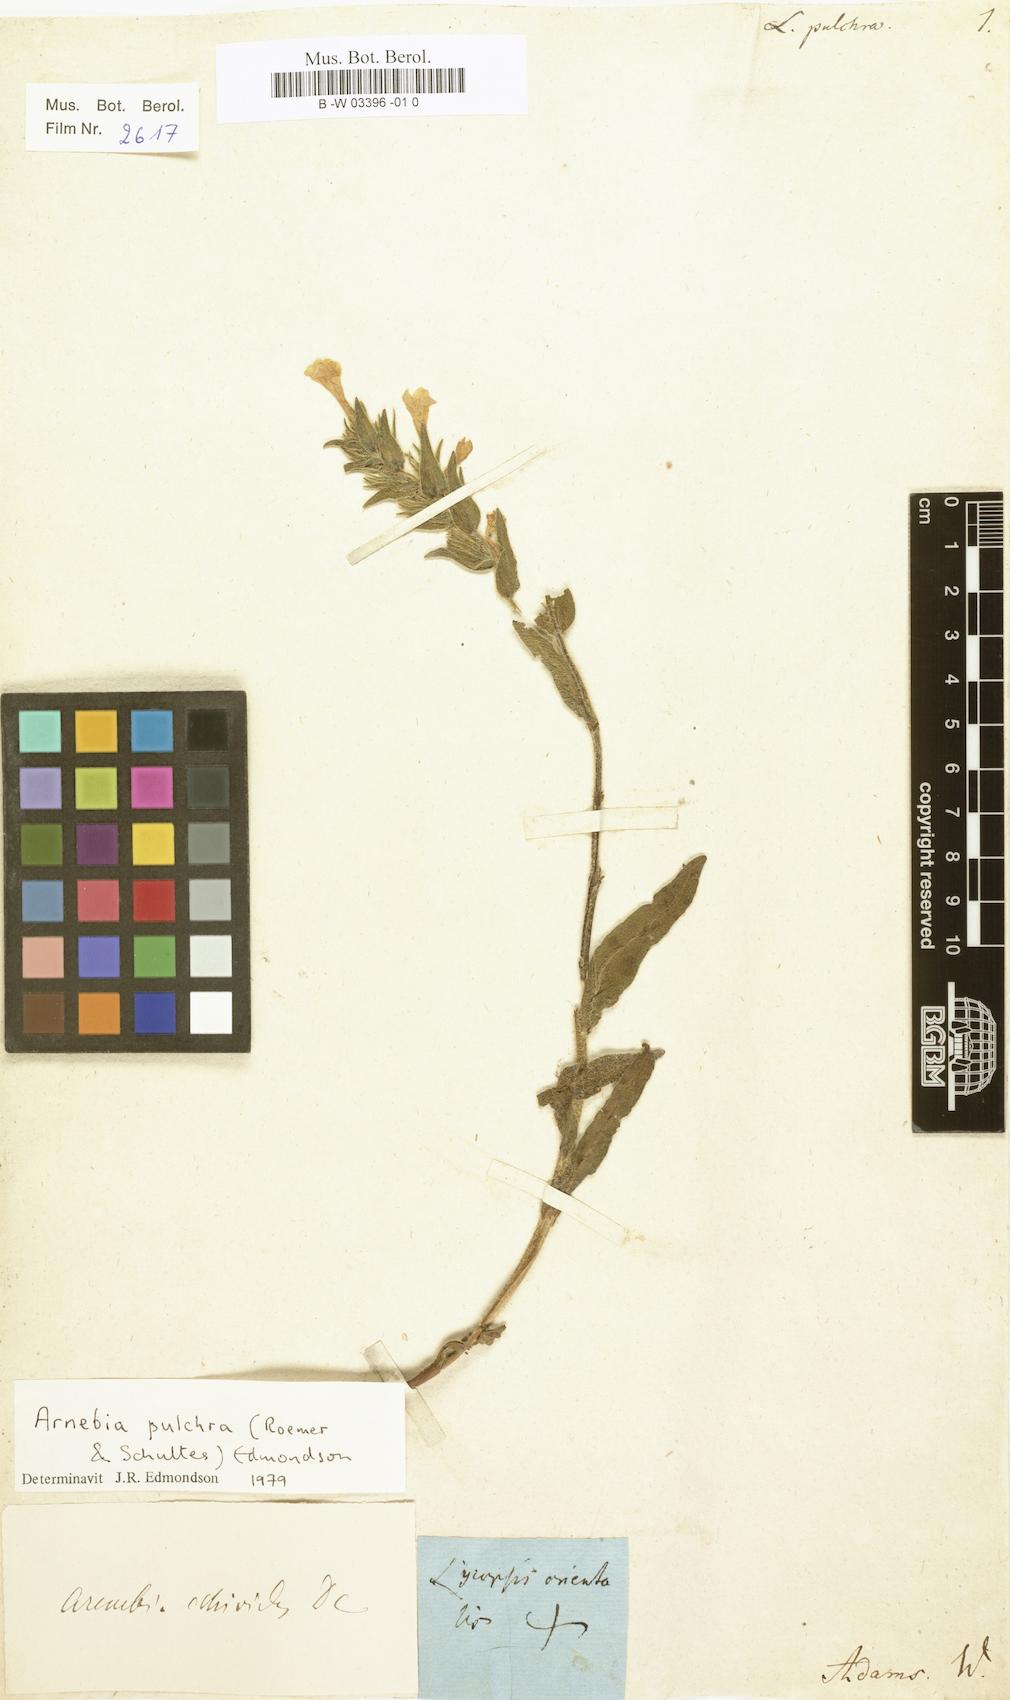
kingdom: Plantae
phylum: Tracheophyta
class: Magnoliopsida
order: Boraginales
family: Boraginaceae
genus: Huynhia
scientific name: Huynhia pulchra
